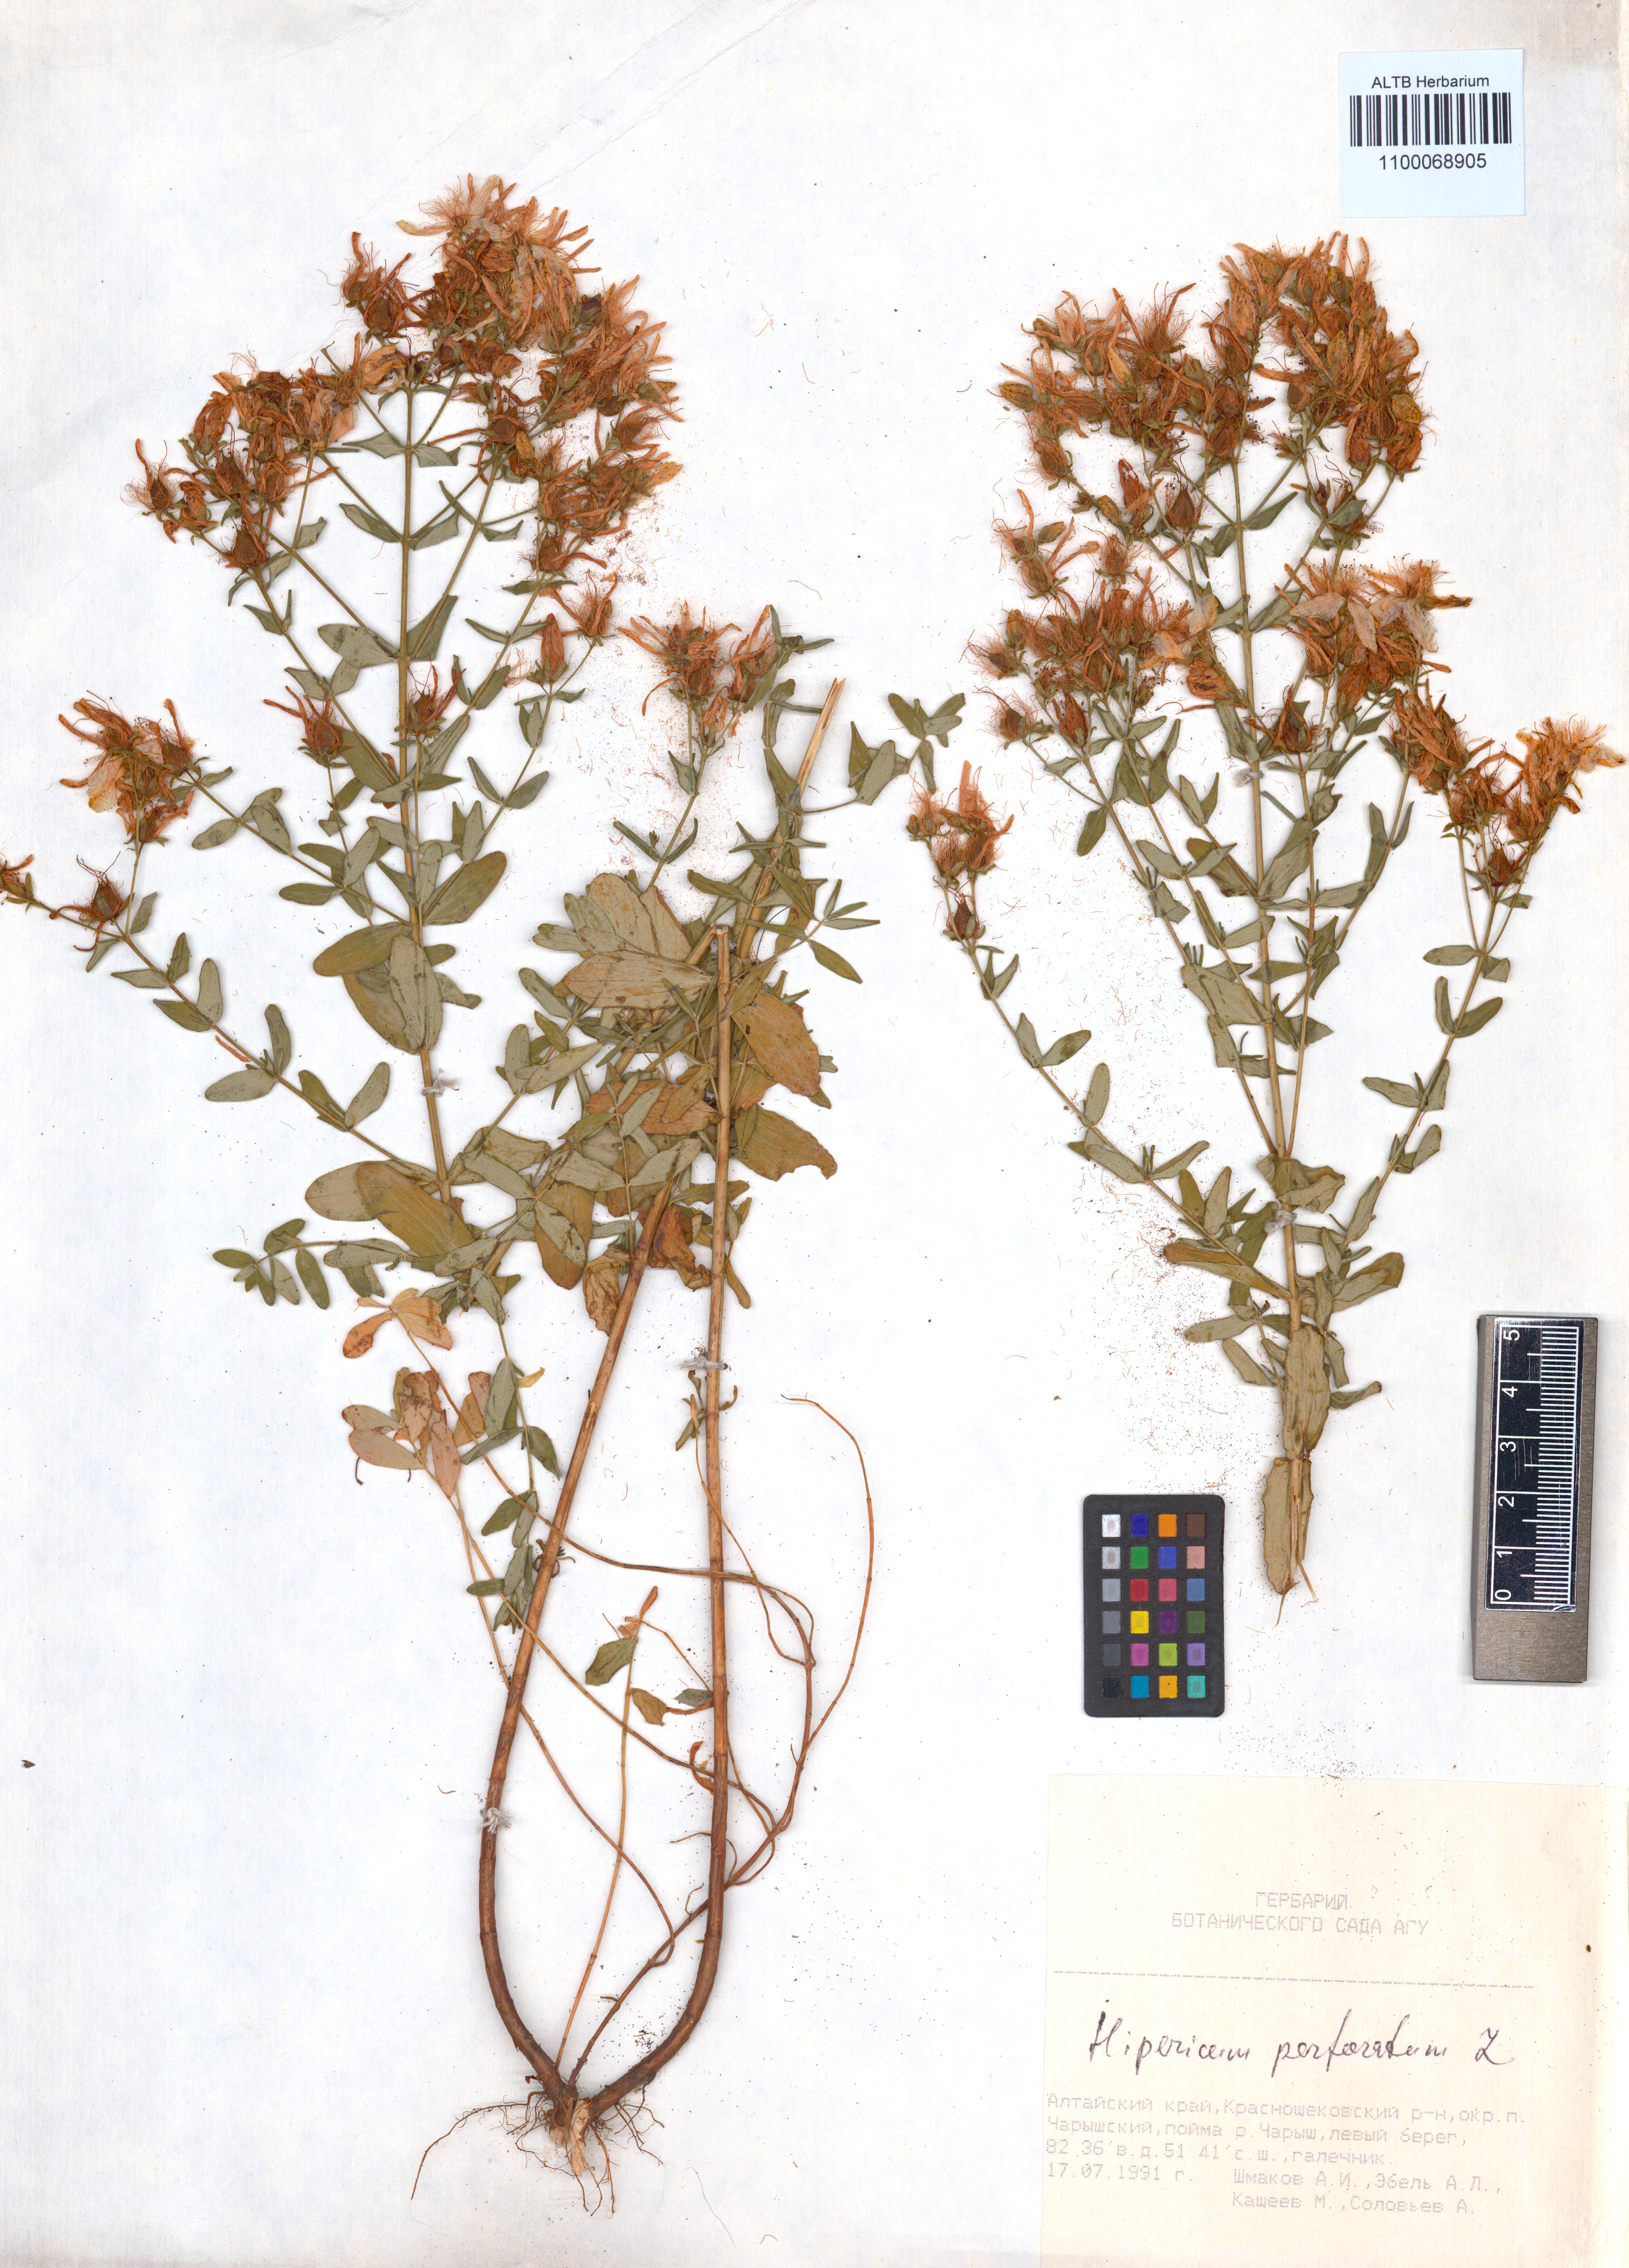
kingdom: Plantae
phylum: Tracheophyta
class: Magnoliopsida
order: Malpighiales
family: Hypericaceae
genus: Hypericum
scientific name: Hypericum perforatum
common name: Common st. johnswort
